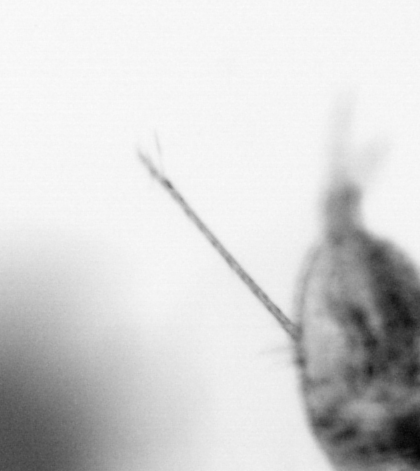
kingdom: Animalia
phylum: Arthropoda
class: Copepoda
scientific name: Copepoda
